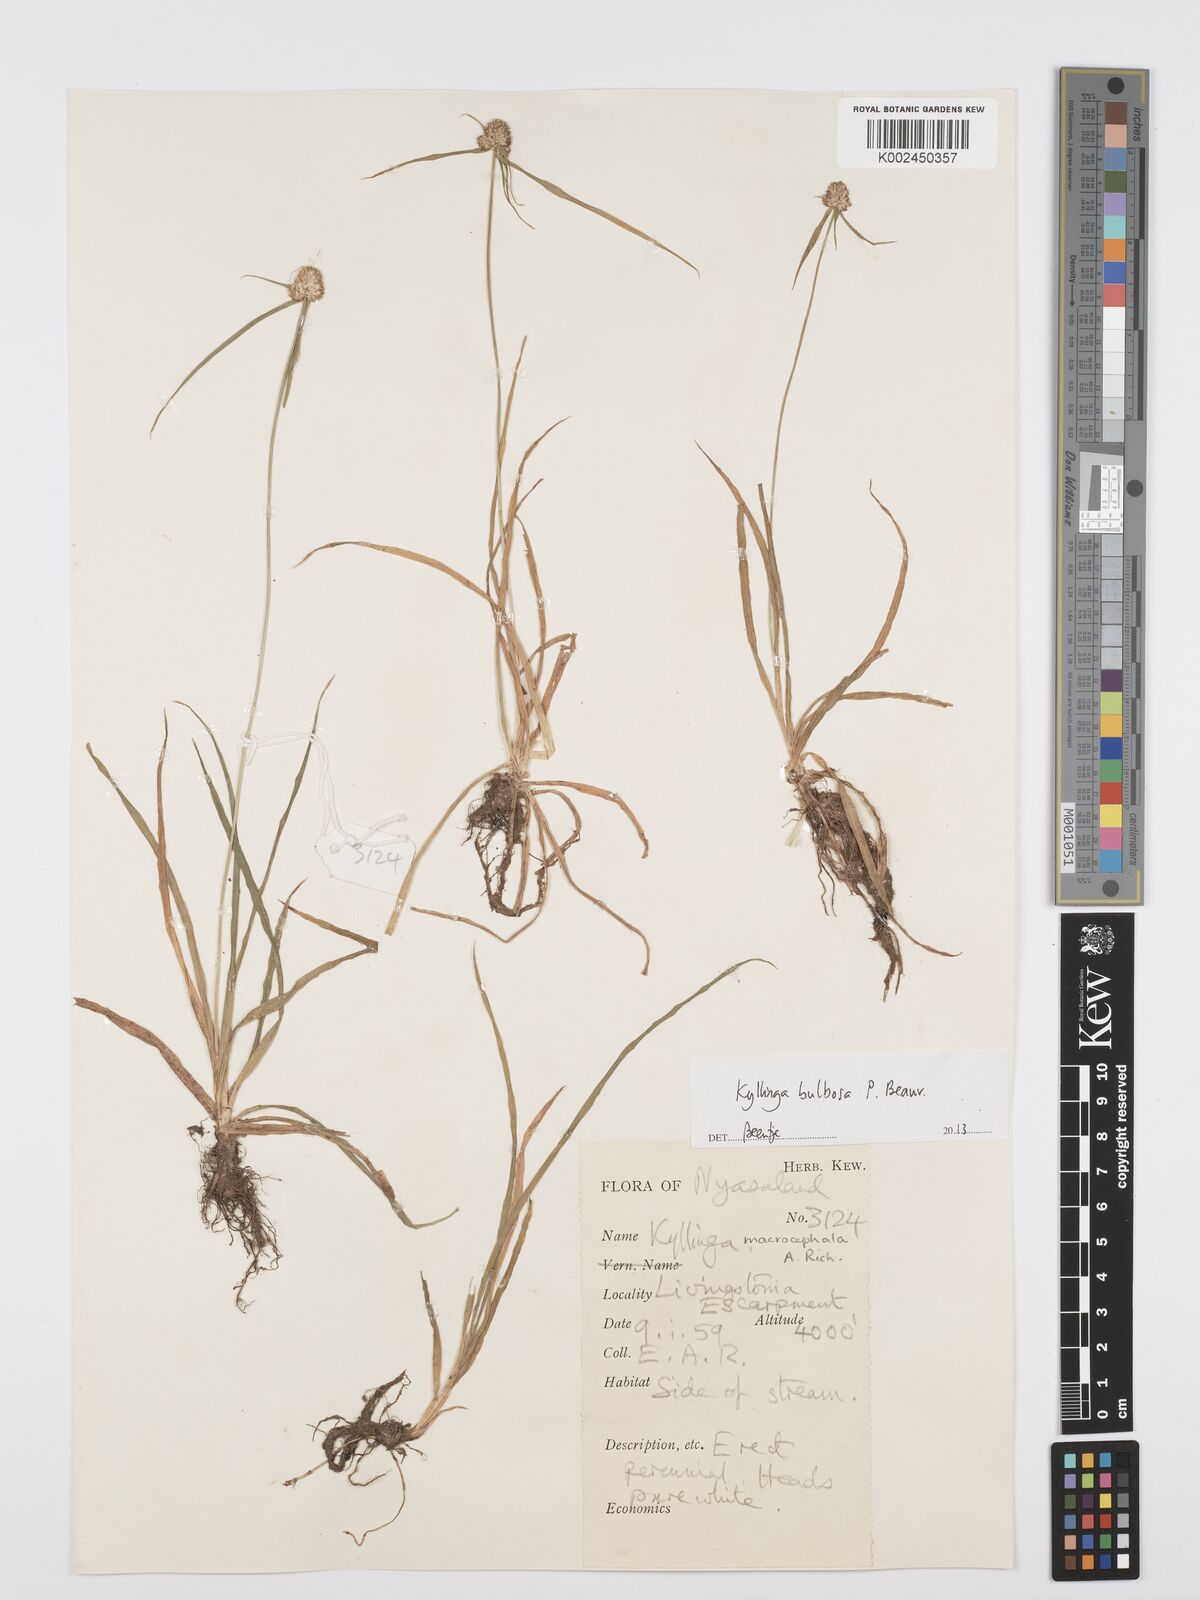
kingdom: Plantae
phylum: Tracheophyta
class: Liliopsida
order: Poales
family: Cyperaceae
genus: Cyperus
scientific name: Cyperus
